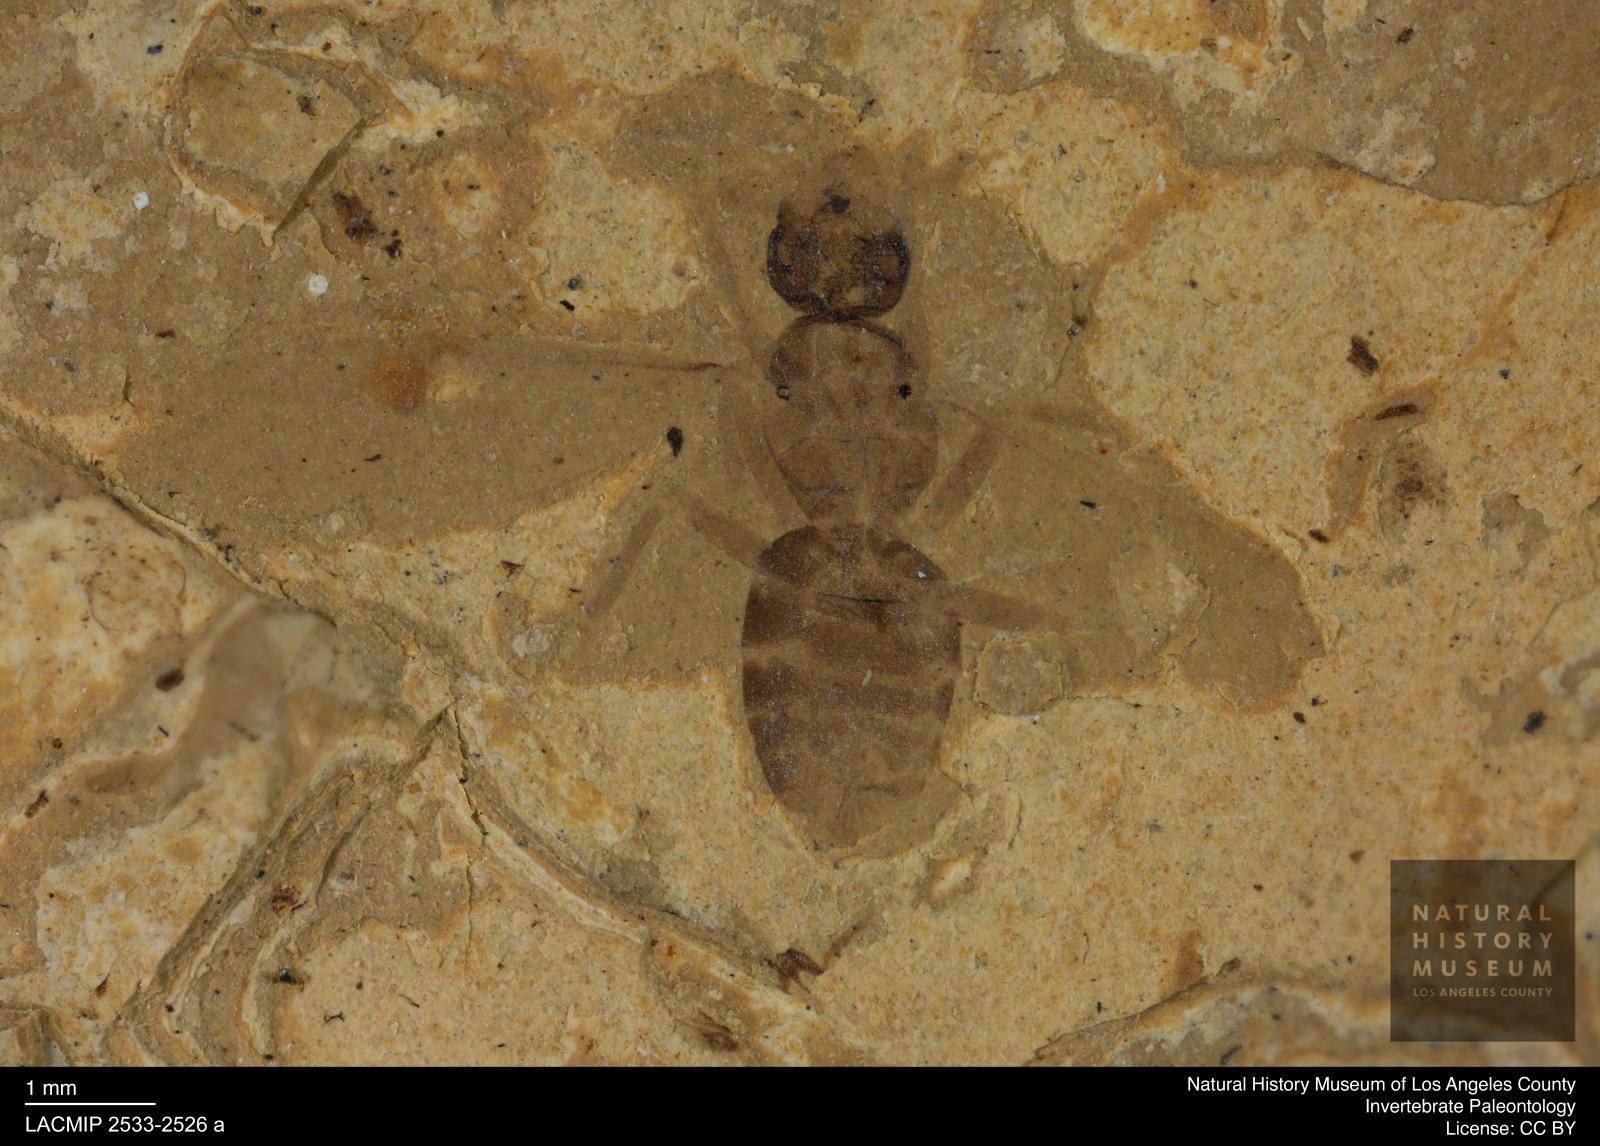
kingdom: Animalia
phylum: Arthropoda
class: Insecta
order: Hymenoptera
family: Formicidae
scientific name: Formicidae
